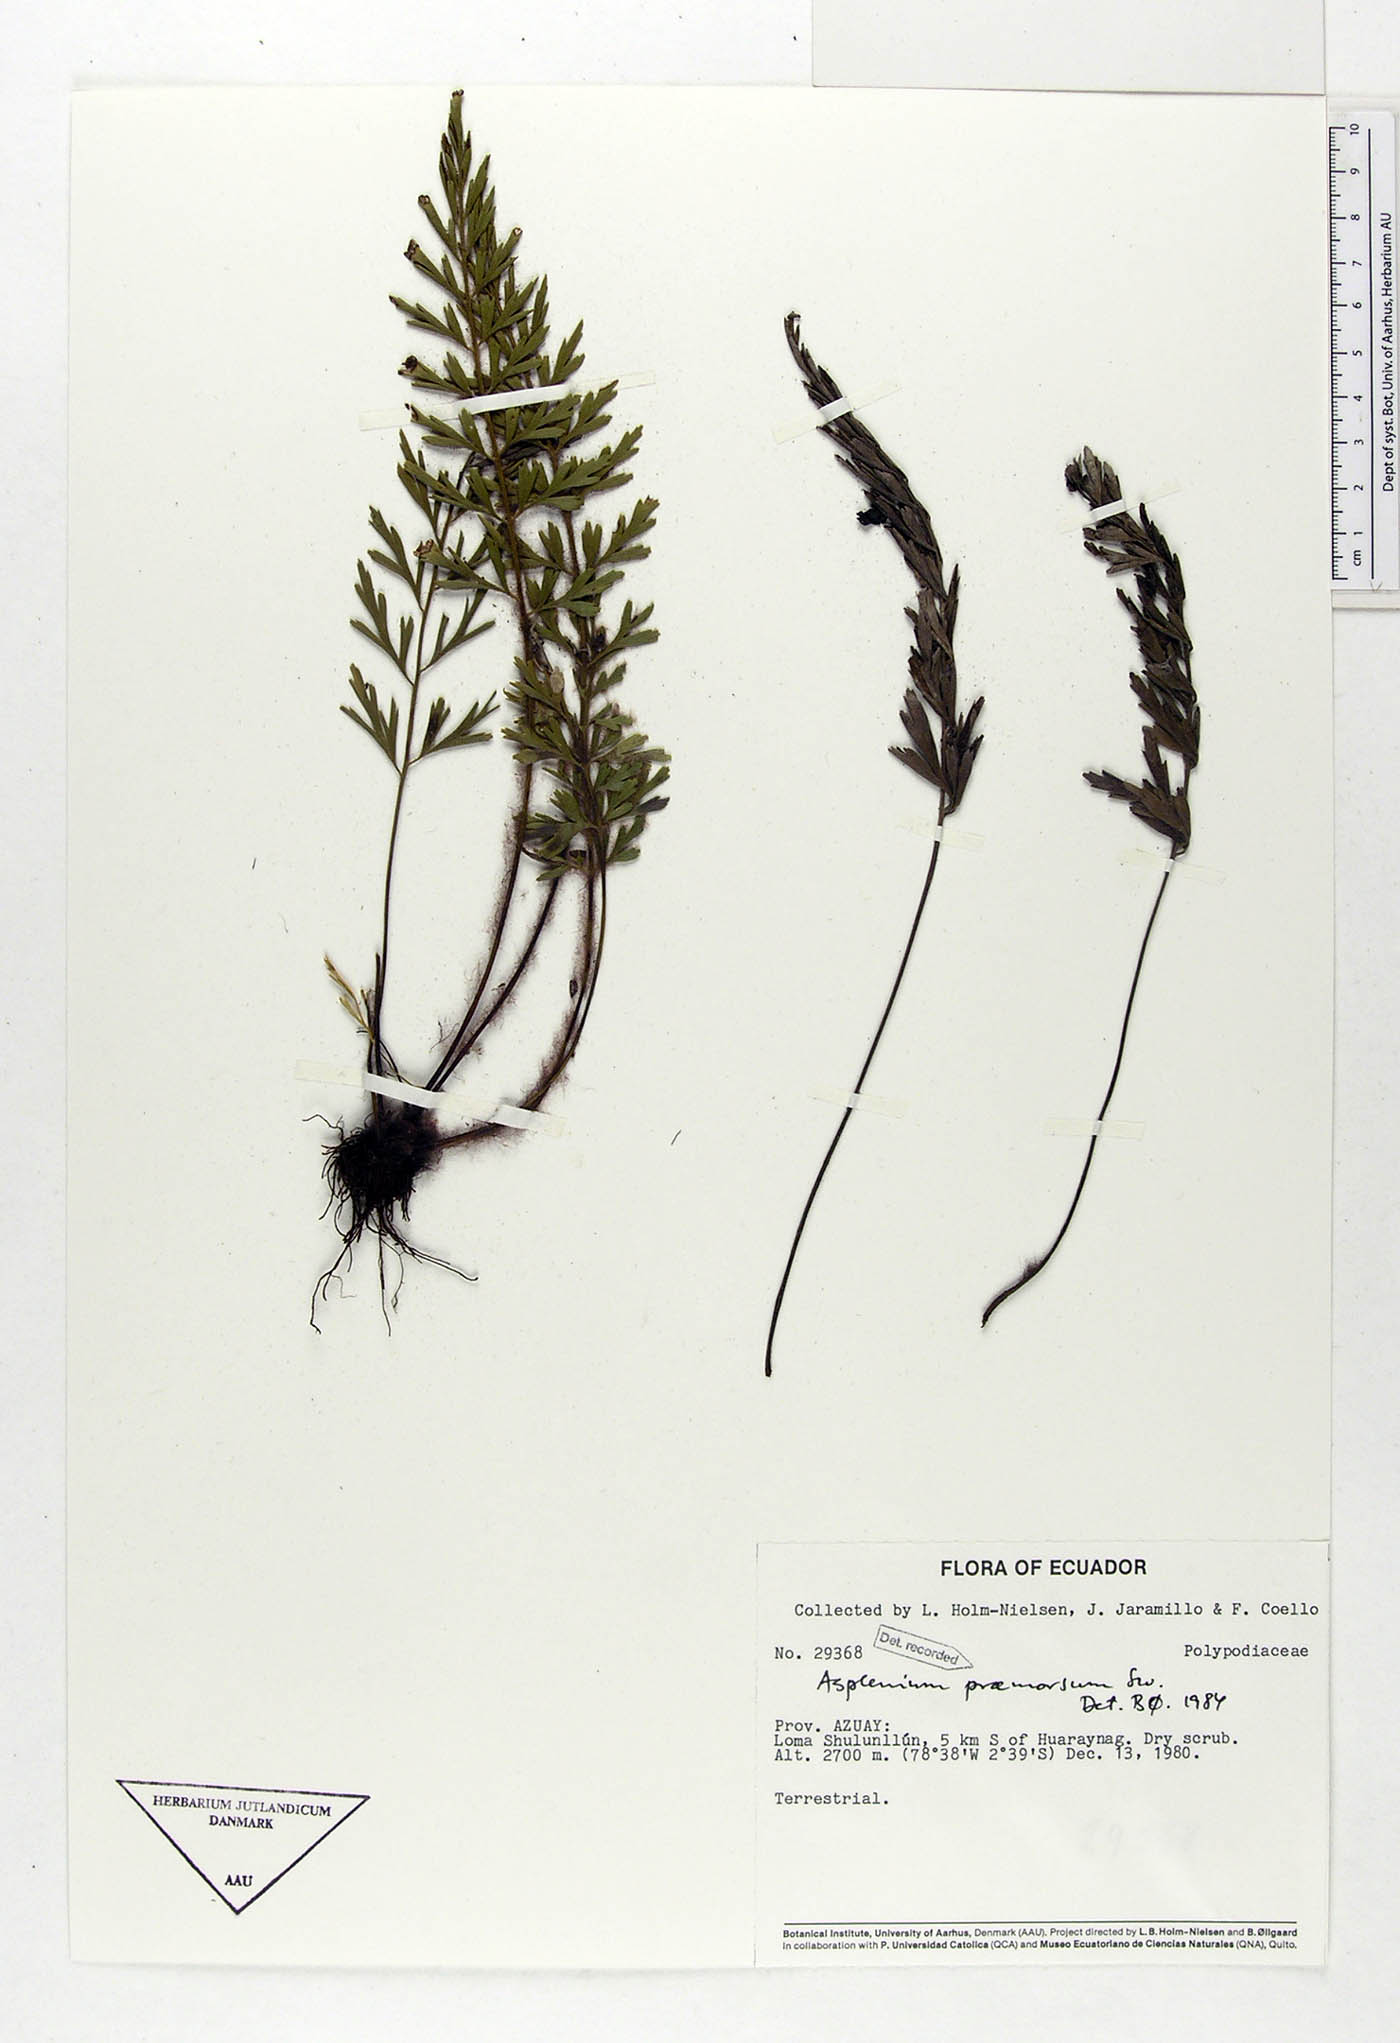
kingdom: Plantae
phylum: Tracheophyta
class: Polypodiopsida
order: Polypodiales
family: Aspleniaceae
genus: Asplenium
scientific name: Asplenium praemorsum
